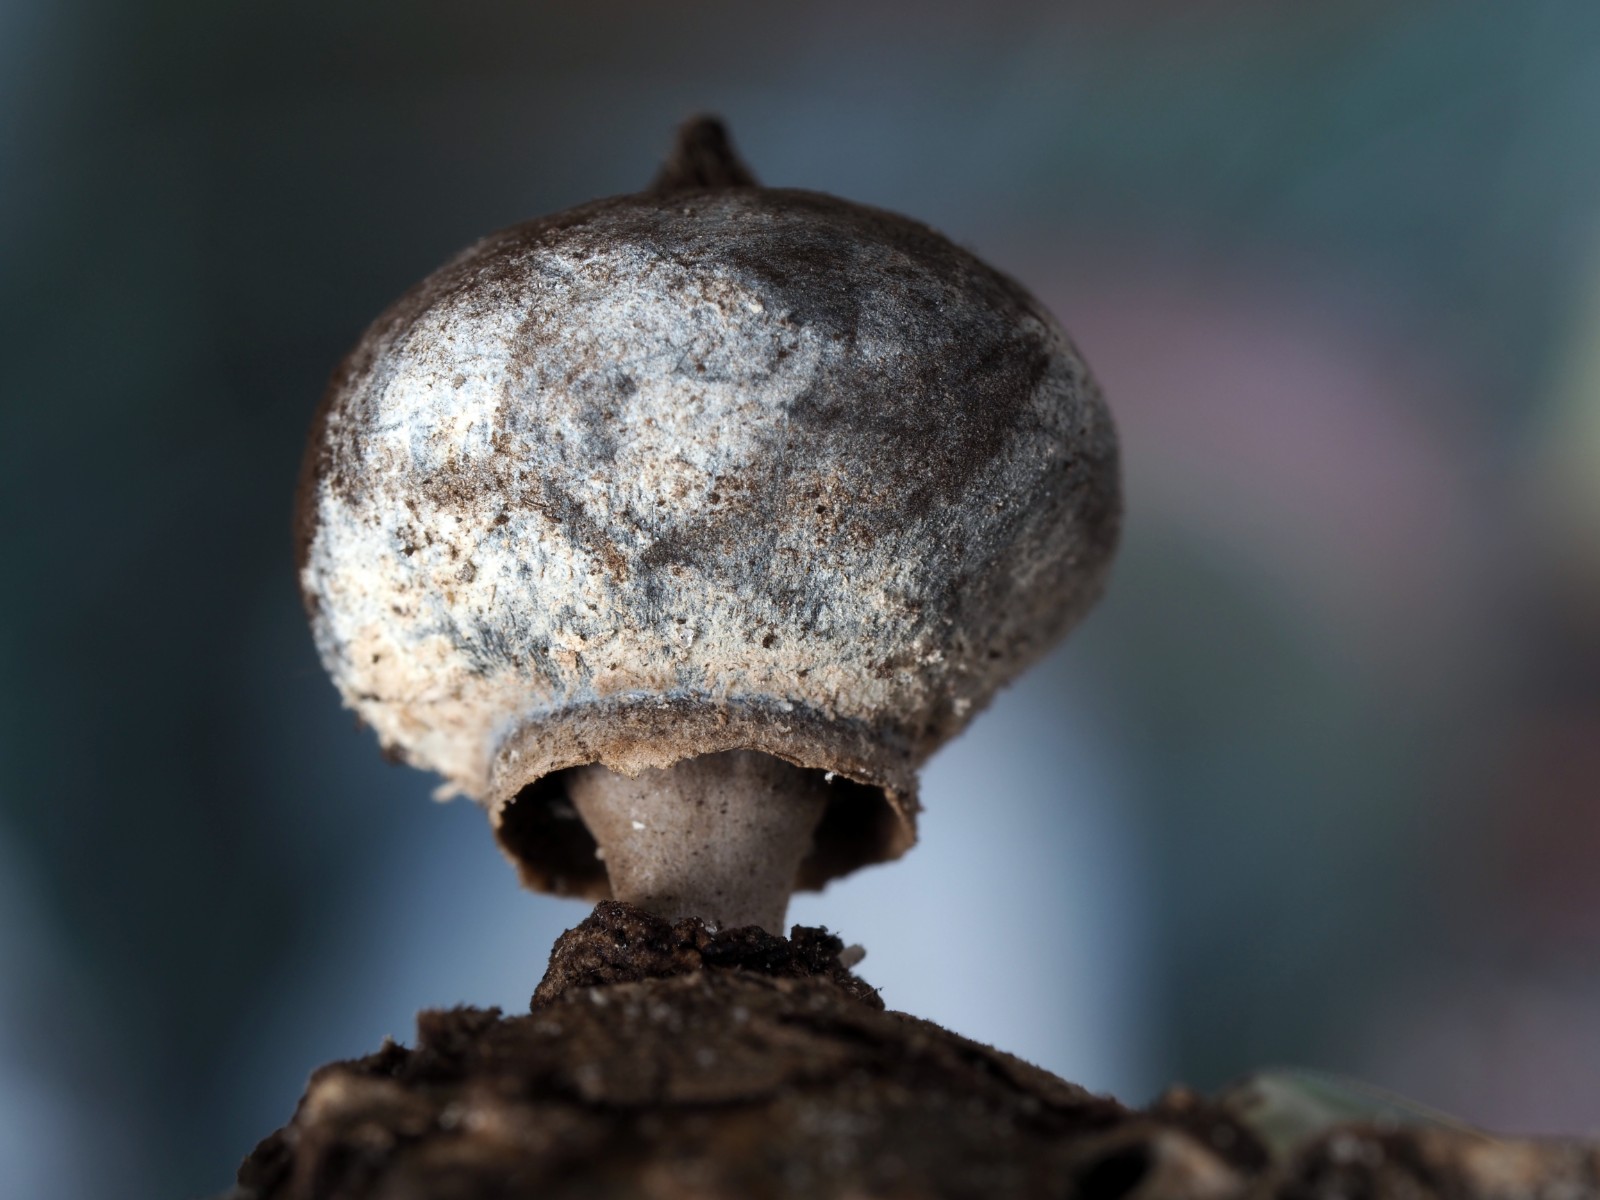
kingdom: Fungi
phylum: Basidiomycota
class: Agaricomycetes
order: Geastrales
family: Geastraceae
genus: Geastrum
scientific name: Geastrum striatum
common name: krave-stjernebold
